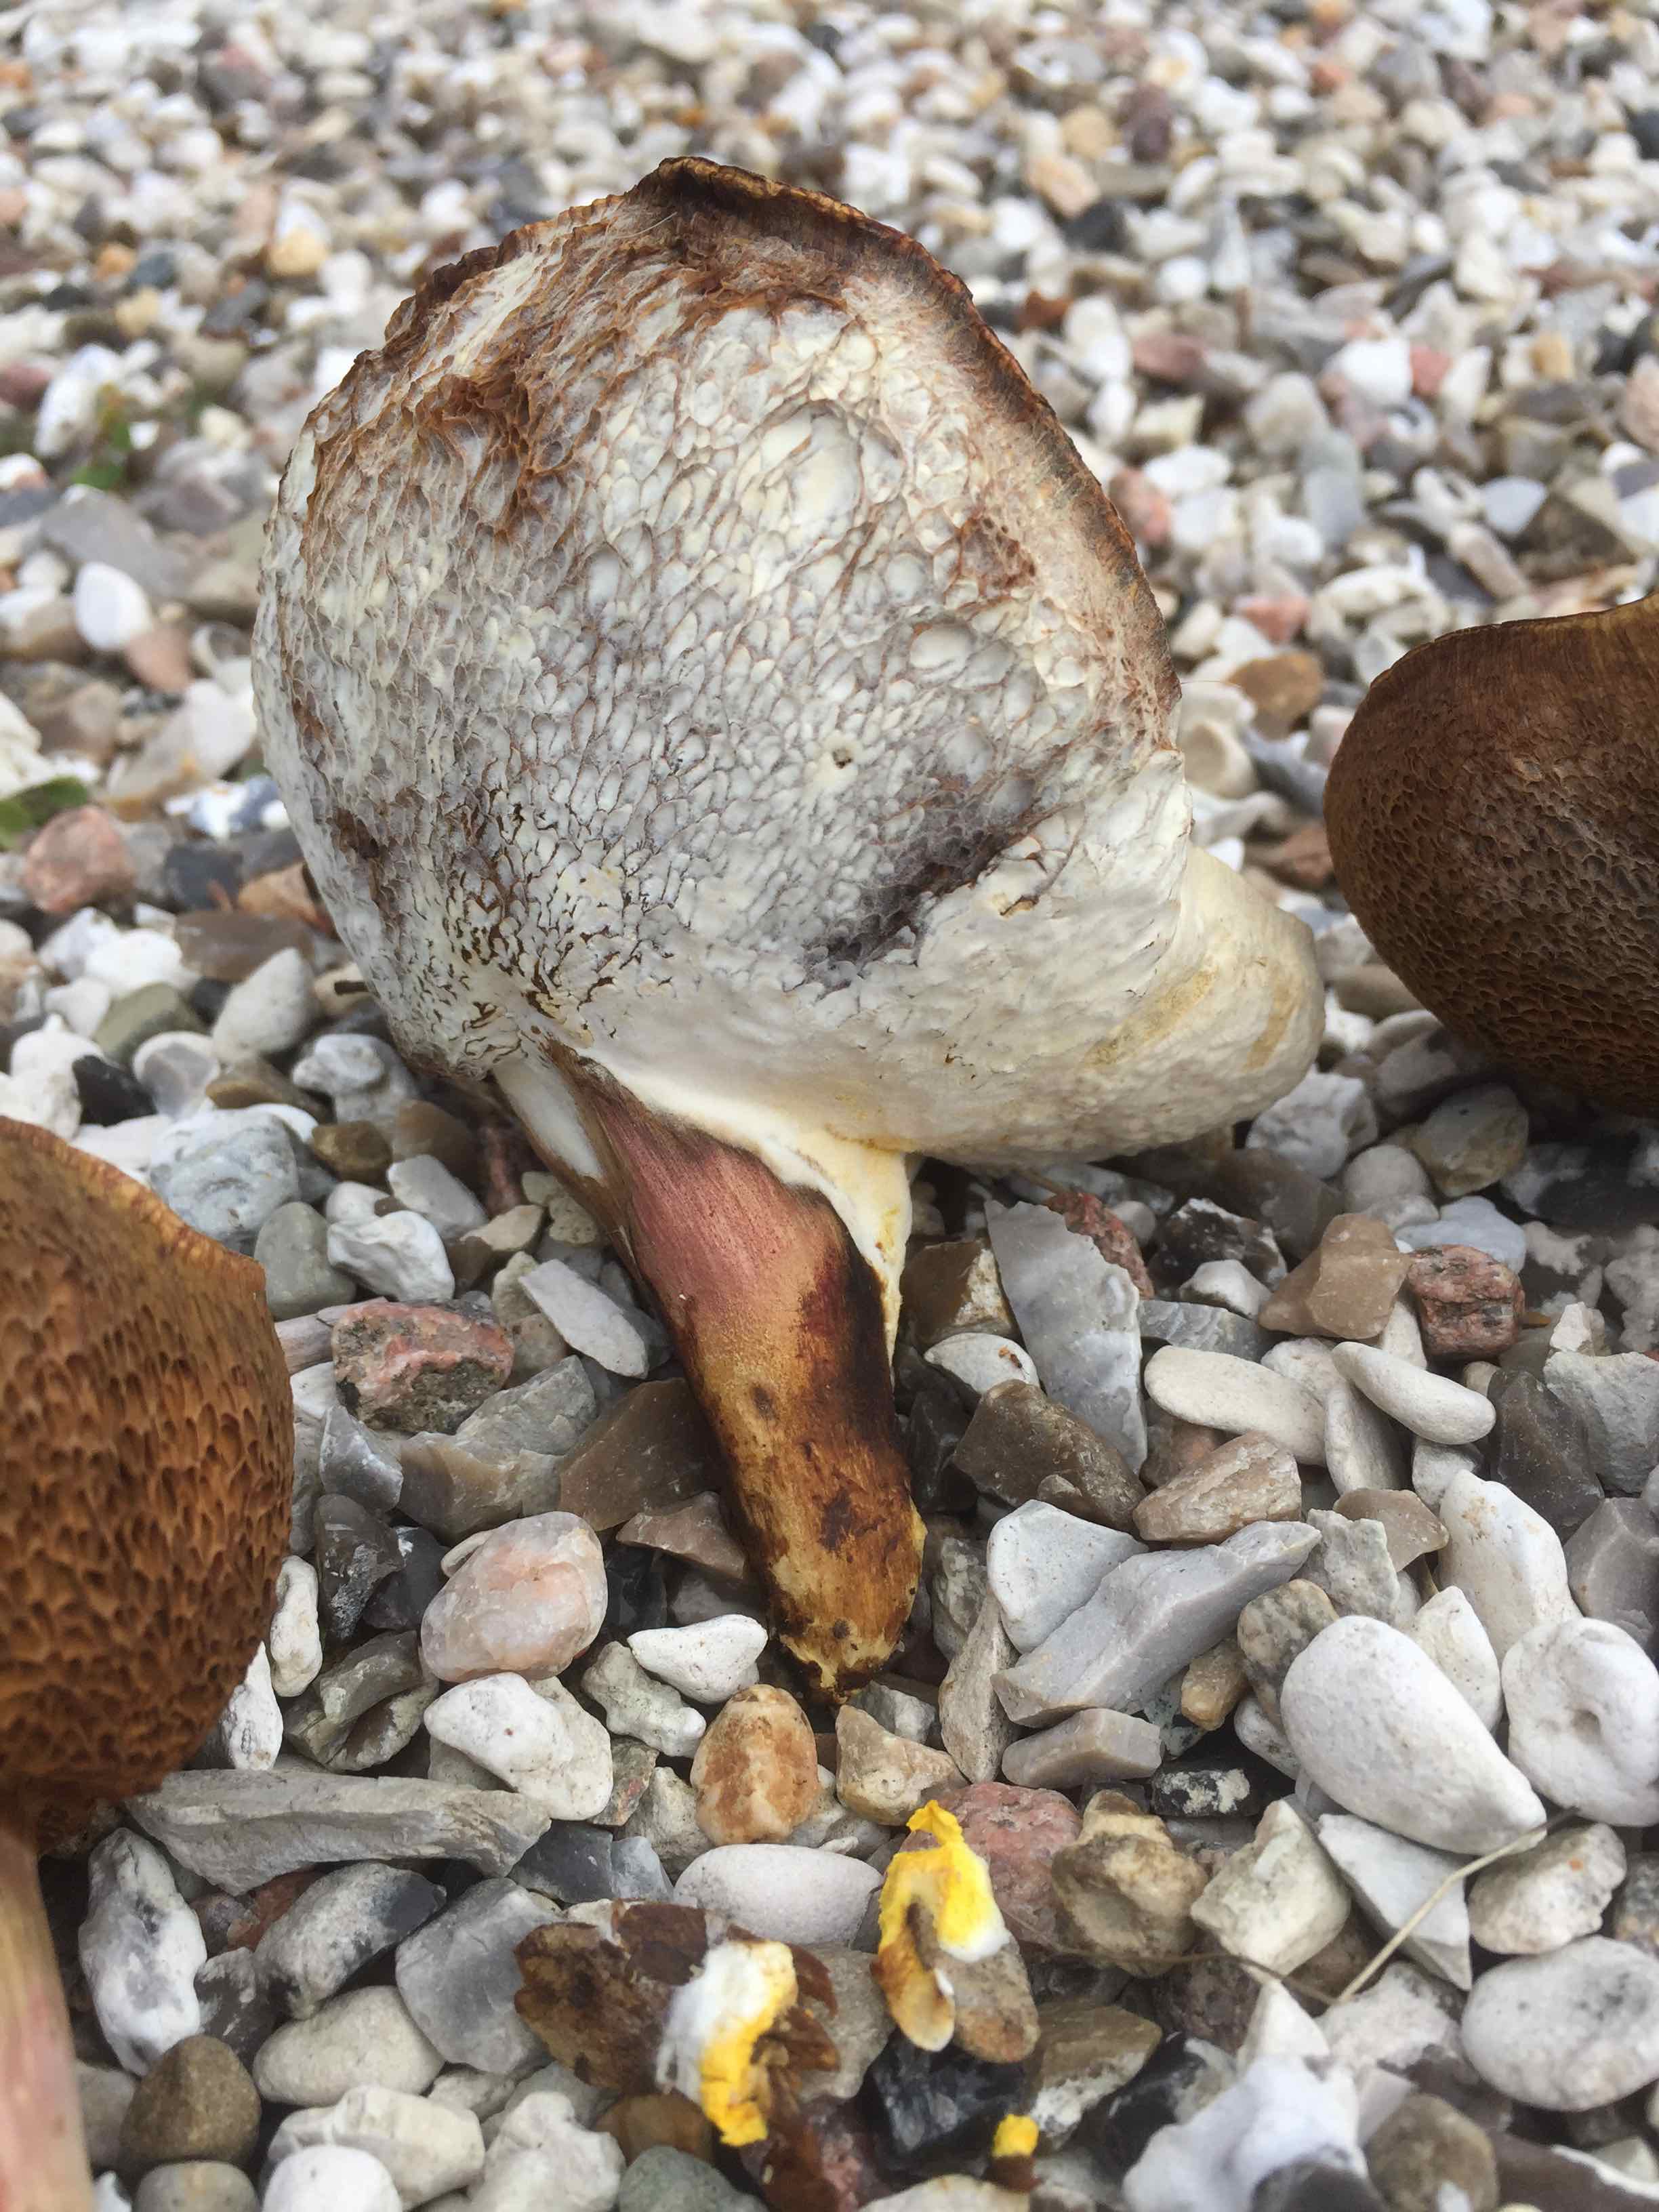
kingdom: Fungi
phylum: Basidiomycota
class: Agaricomycetes
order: Boletales
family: Boletaceae
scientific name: Boletaceae
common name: rørhatfamilien
